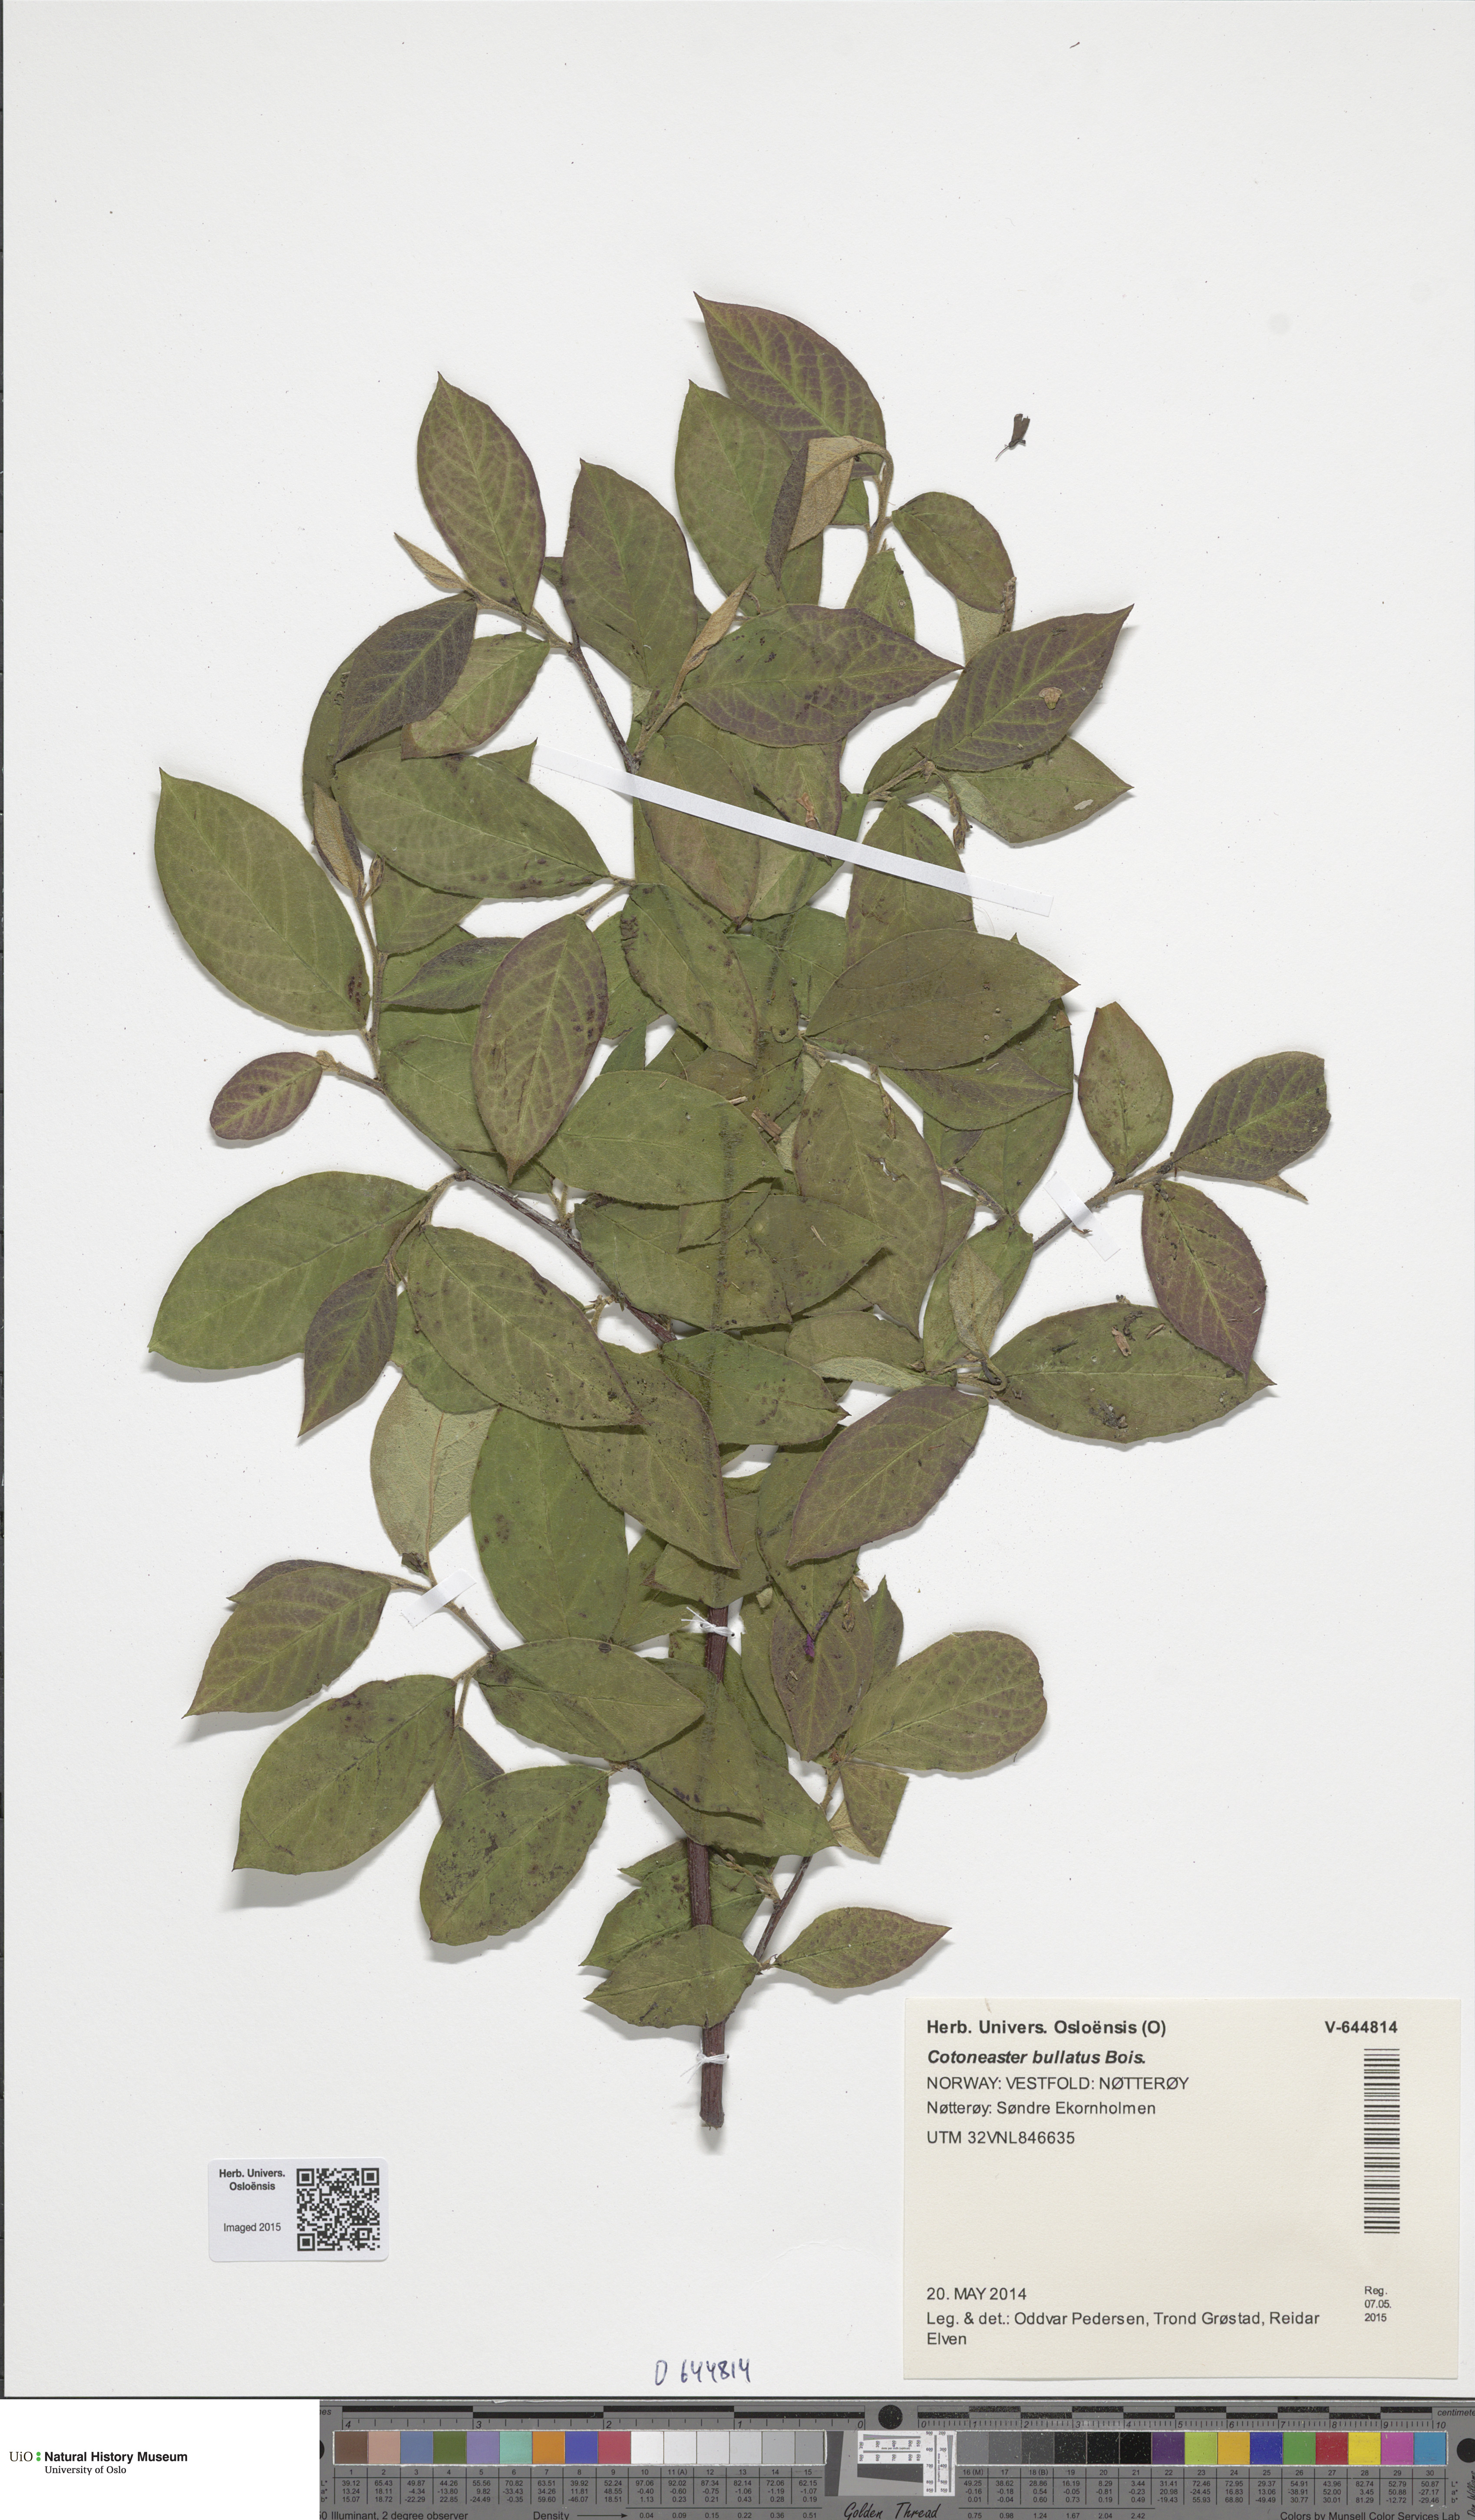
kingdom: Plantae
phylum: Tracheophyta
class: Magnoliopsida
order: Rosales
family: Rosaceae
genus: Cotoneaster
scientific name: Cotoneaster bullatus
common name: Hollyberry cotoneaster
